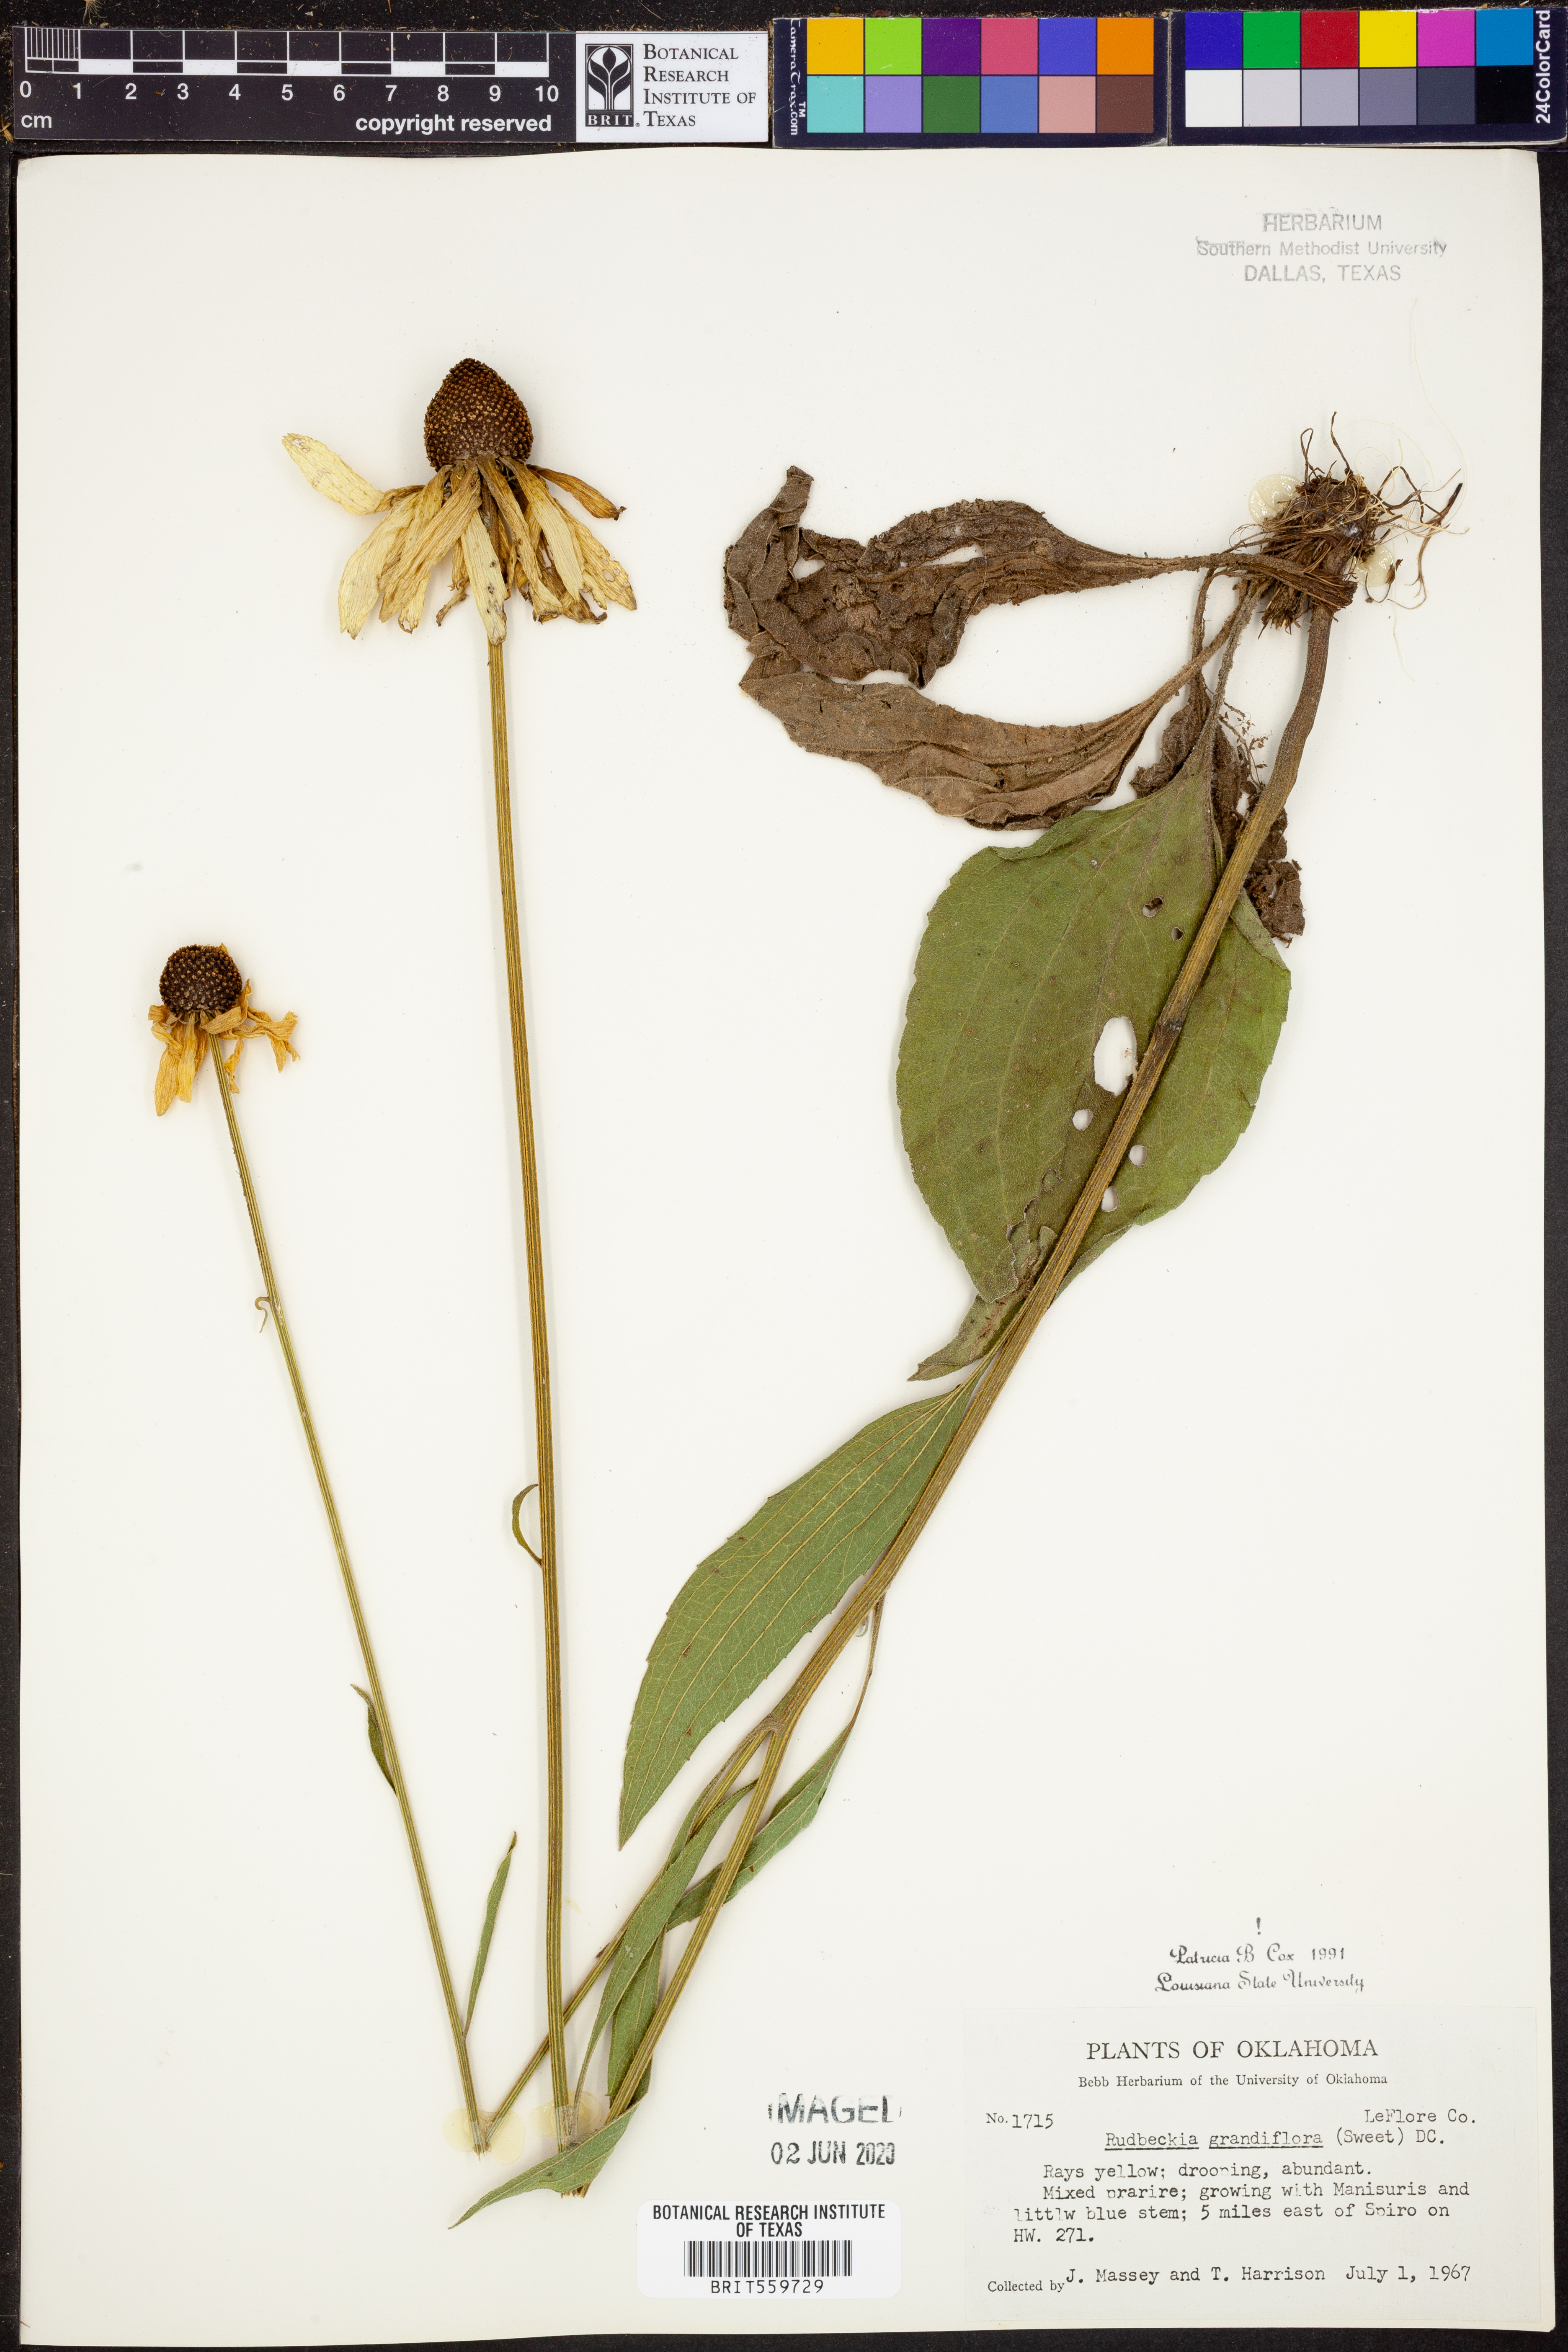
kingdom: Plantae
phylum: Tracheophyta
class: Magnoliopsida
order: Asterales
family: Asteraceae
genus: Rudbeckia
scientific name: Rudbeckia grandiflora
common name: Large-flowered coneflower
